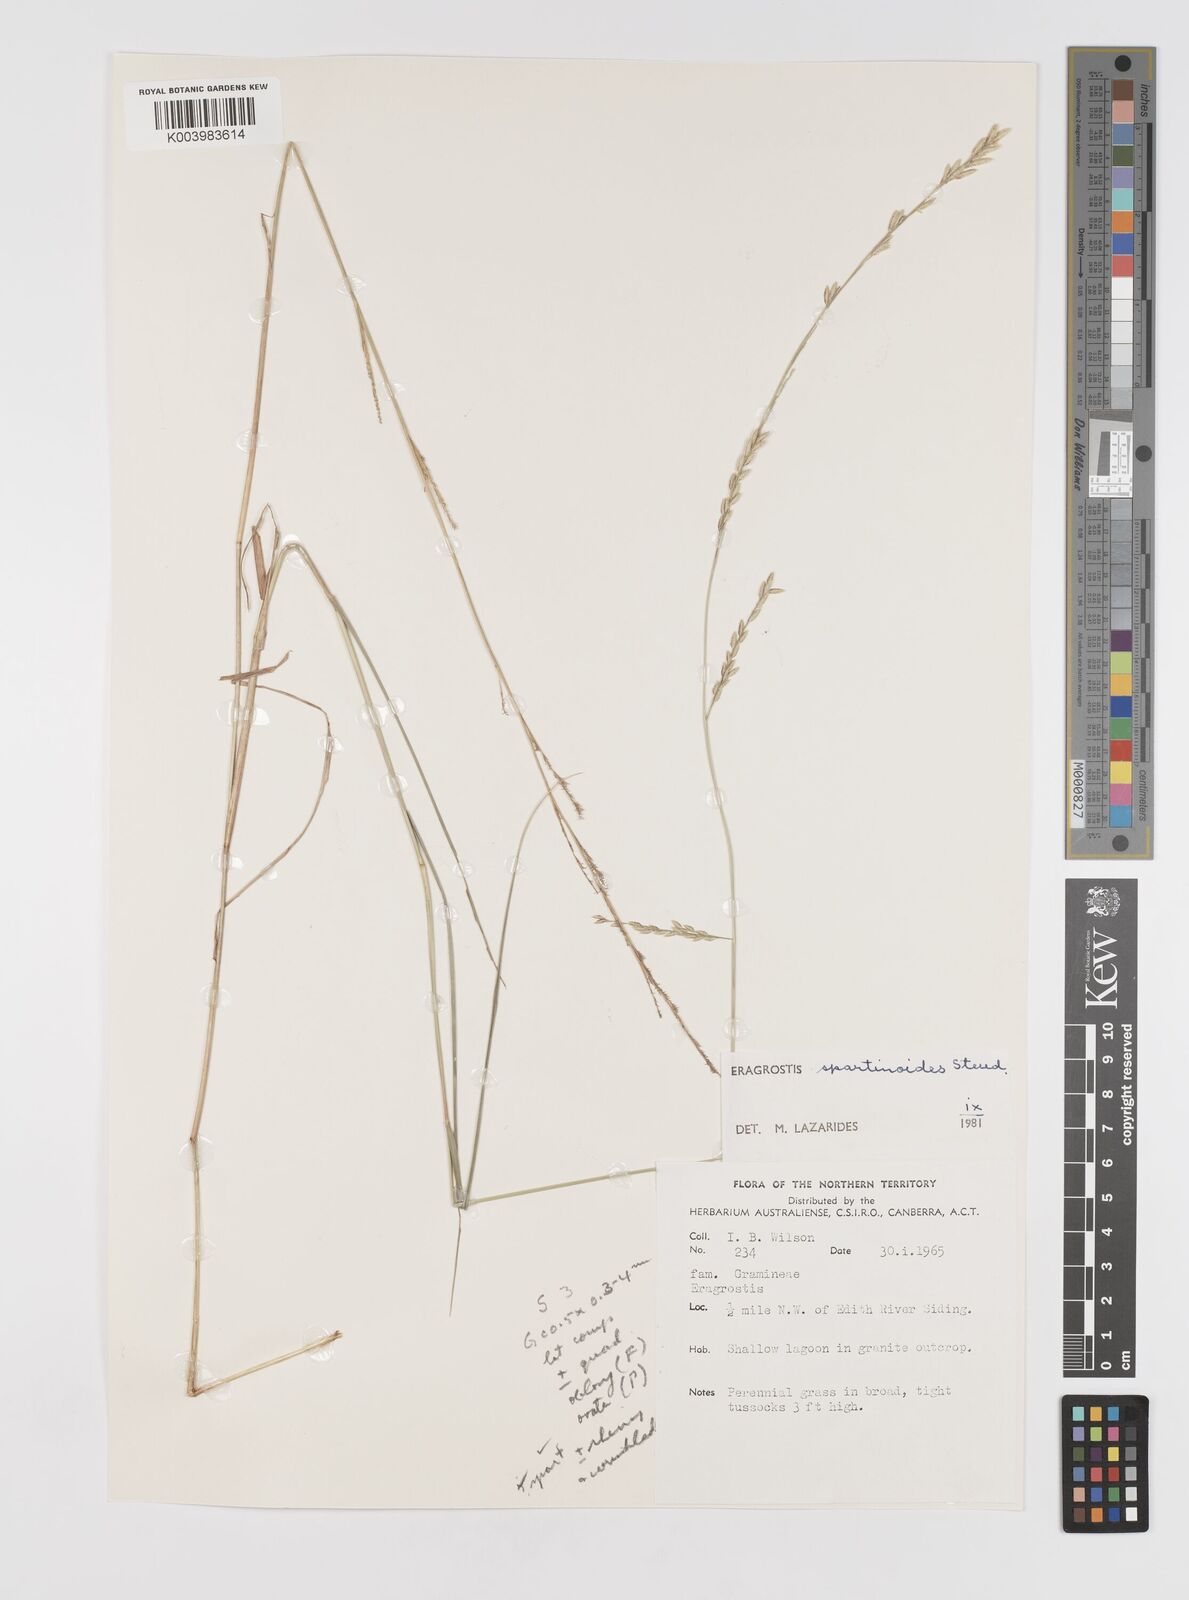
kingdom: Plantae
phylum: Tracheophyta
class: Liliopsida
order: Poales
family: Poaceae
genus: Eragrostis
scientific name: Eragrostis speciosa
